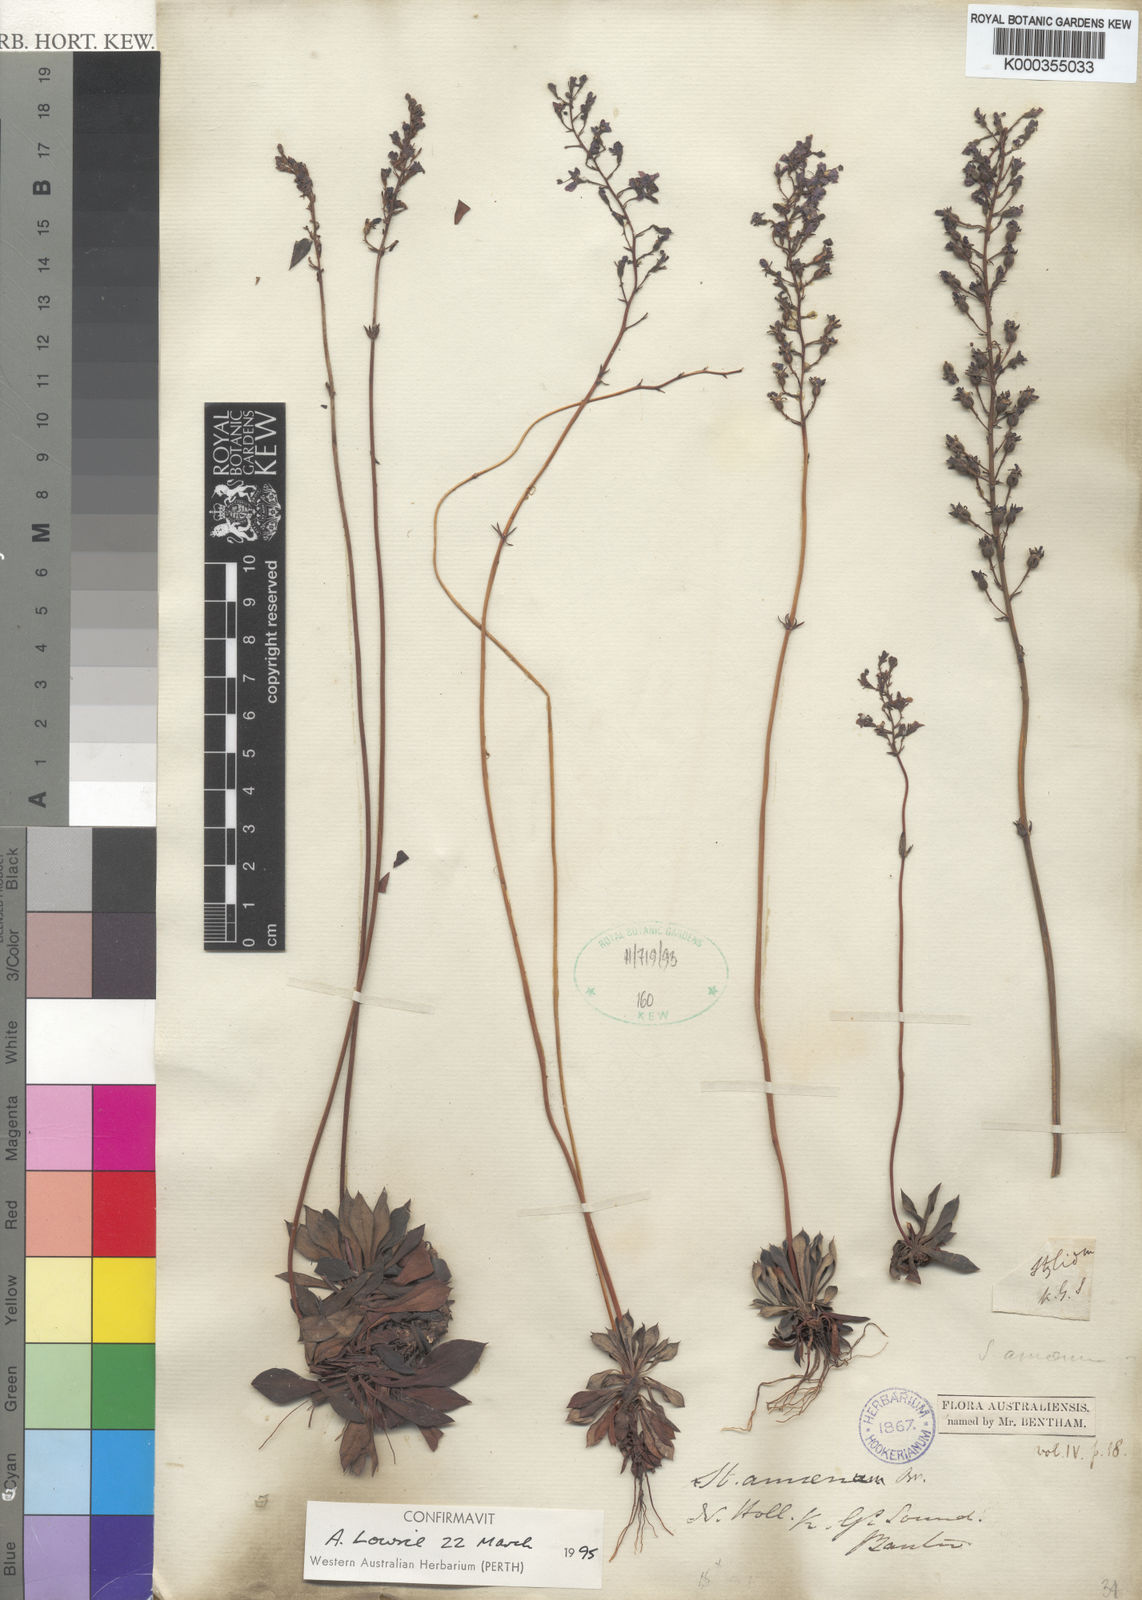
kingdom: Plantae
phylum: Tracheophyta
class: Magnoliopsida
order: Asterales
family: Stylidiaceae
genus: Stylidium
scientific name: Stylidium amoenum
